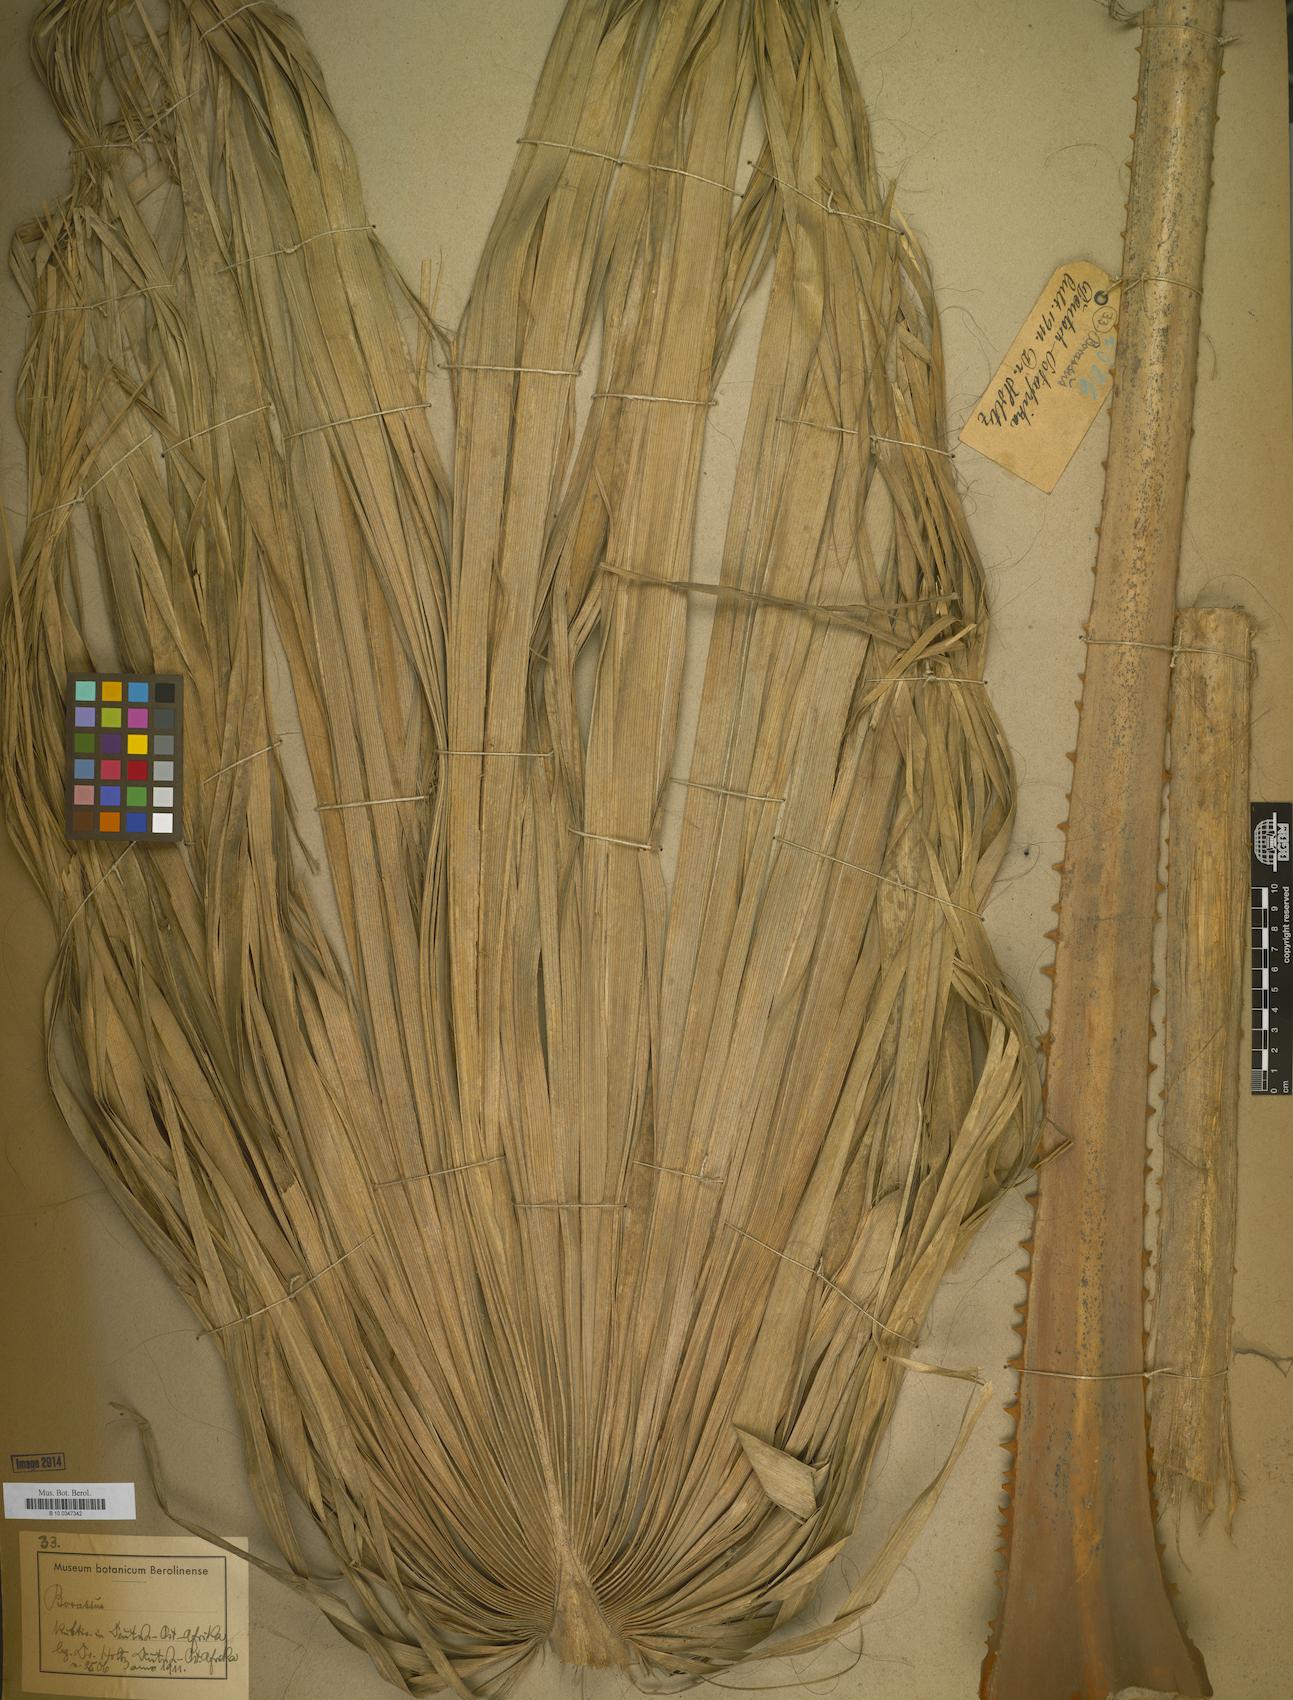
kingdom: Plantae
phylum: Tracheophyta
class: Liliopsida
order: Arecales
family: Arecaceae
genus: Borassus
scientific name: Borassus
